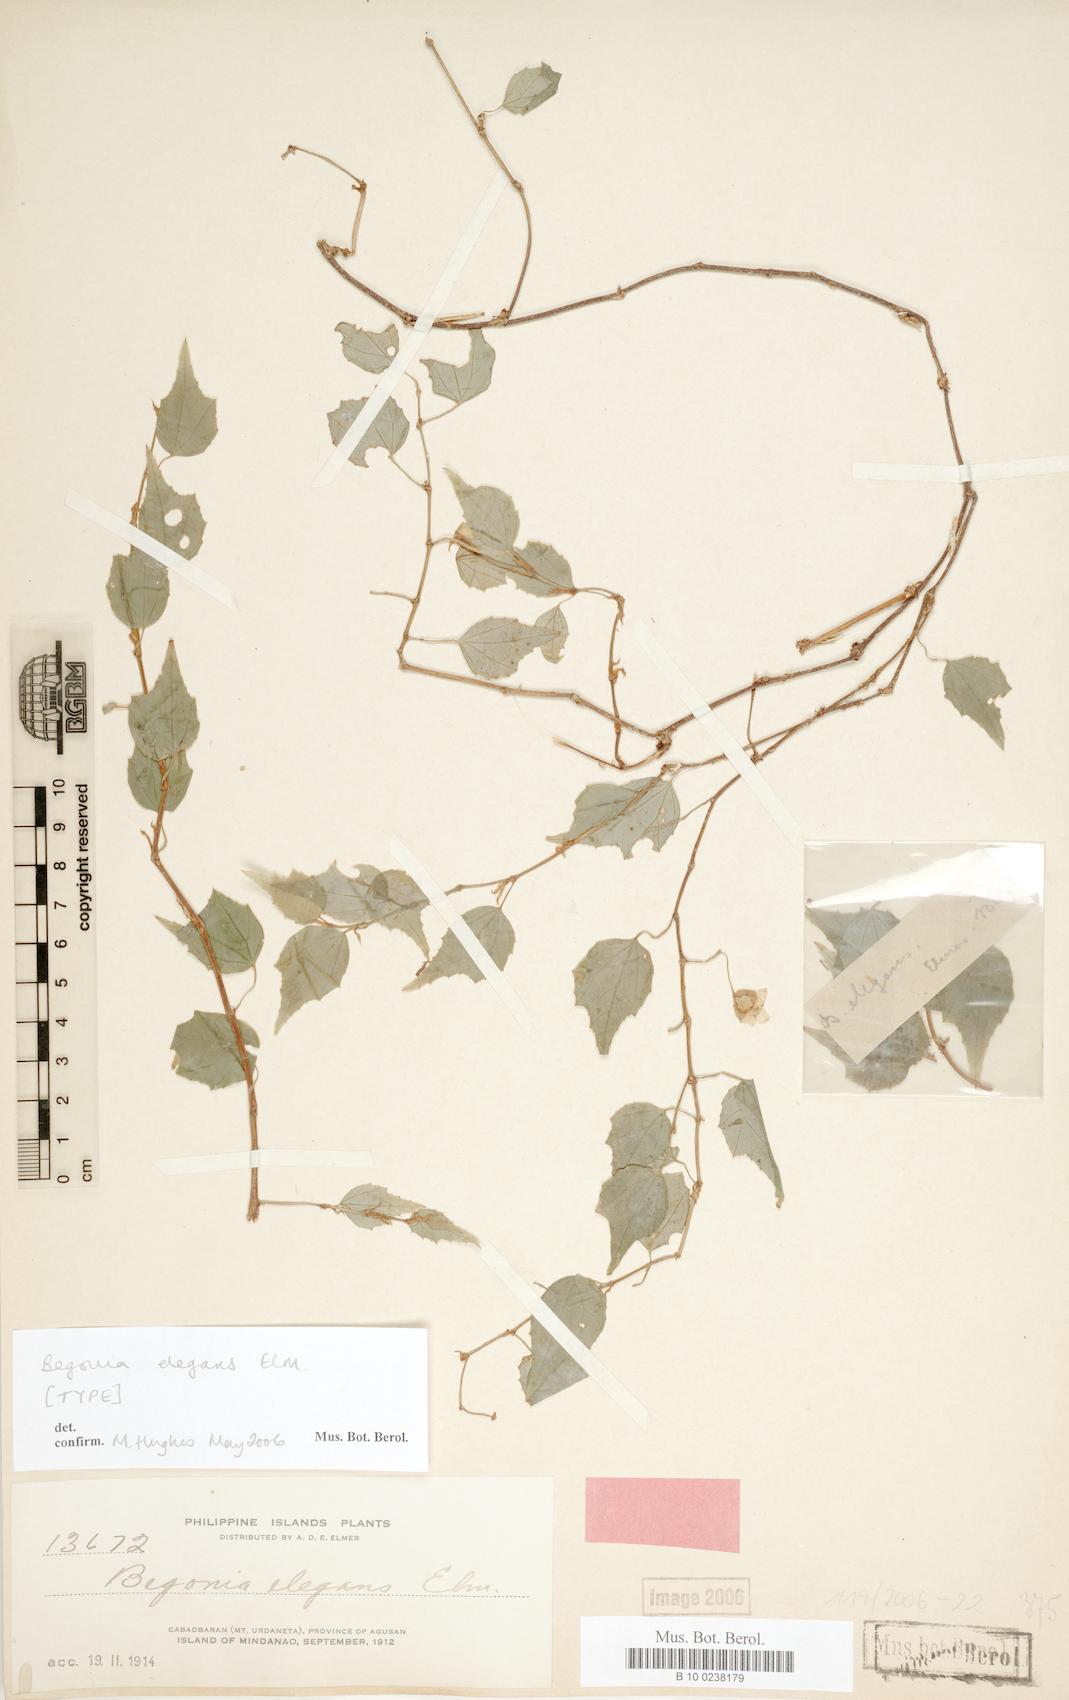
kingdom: Plantae
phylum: Tracheophyta
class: Magnoliopsida
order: Cucurbitales
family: Begoniaceae
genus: Begonia
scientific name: Begonia sarmentosa
